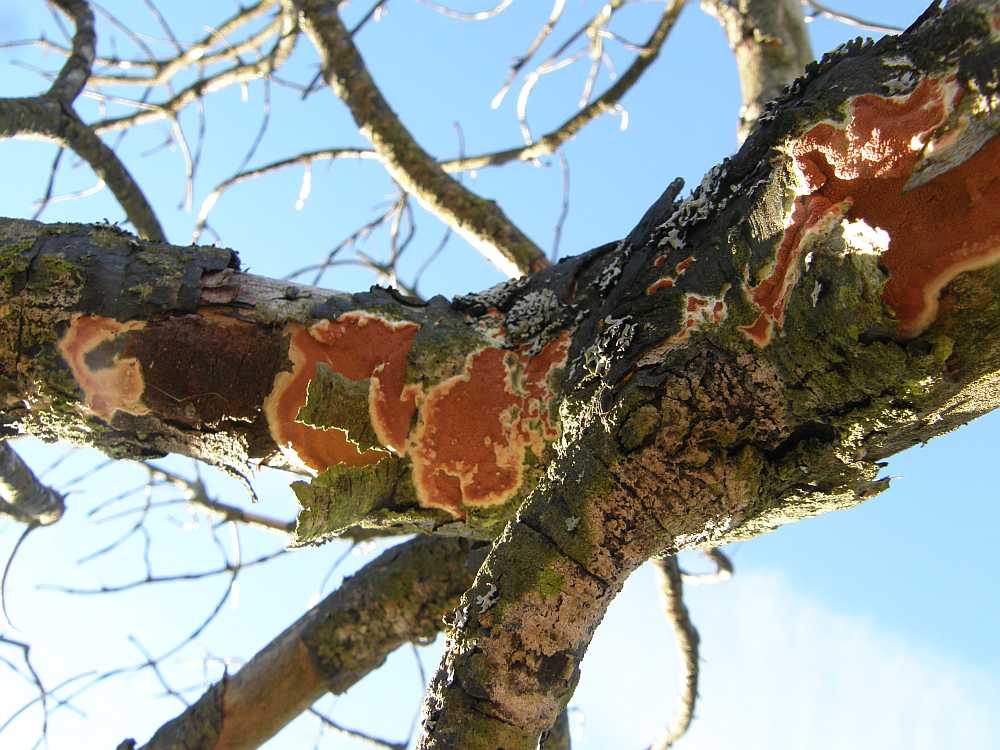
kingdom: Fungi
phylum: Basidiomycota
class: Agaricomycetes
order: Polyporales
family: Irpicaceae
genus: Meruliopsis
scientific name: Meruliopsis taxicola
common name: purpurbrun foldporesvamp
